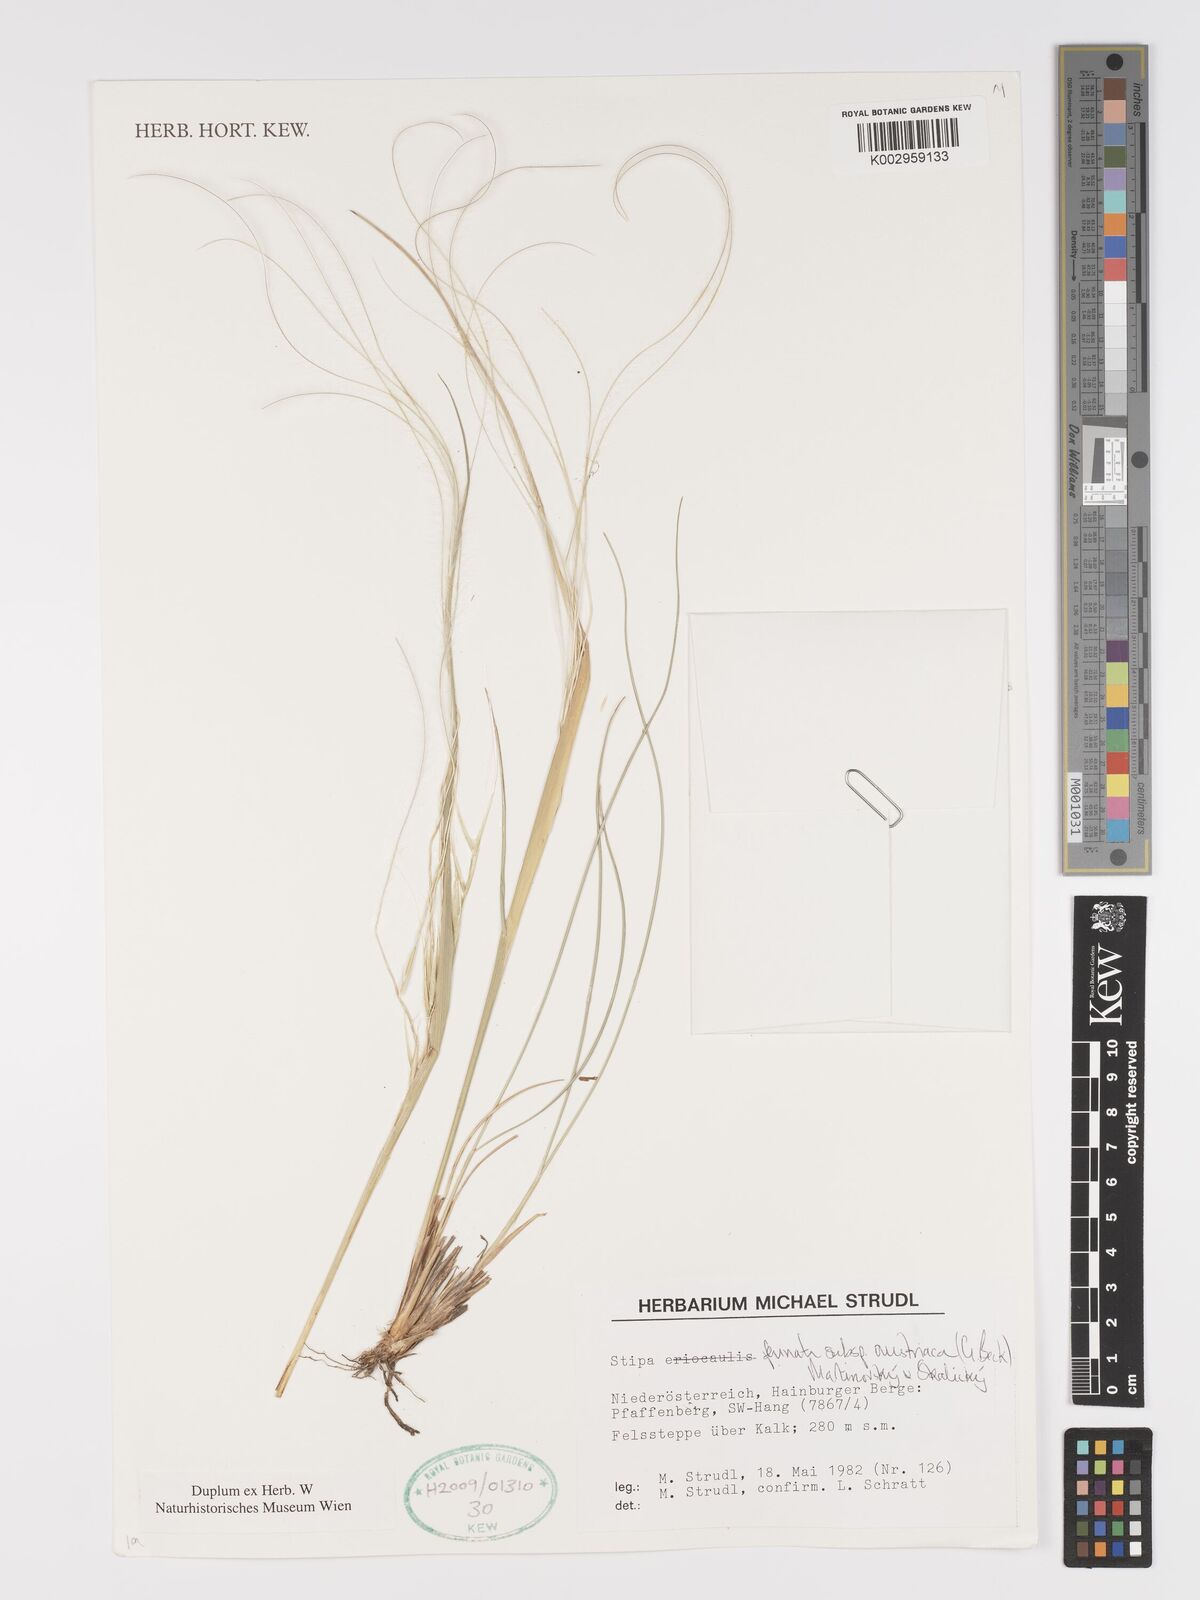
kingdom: Plantae
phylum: Tracheophyta
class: Liliopsida
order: Poales
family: Poaceae
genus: Stipa
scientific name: Stipa pennata
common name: European feather grass
